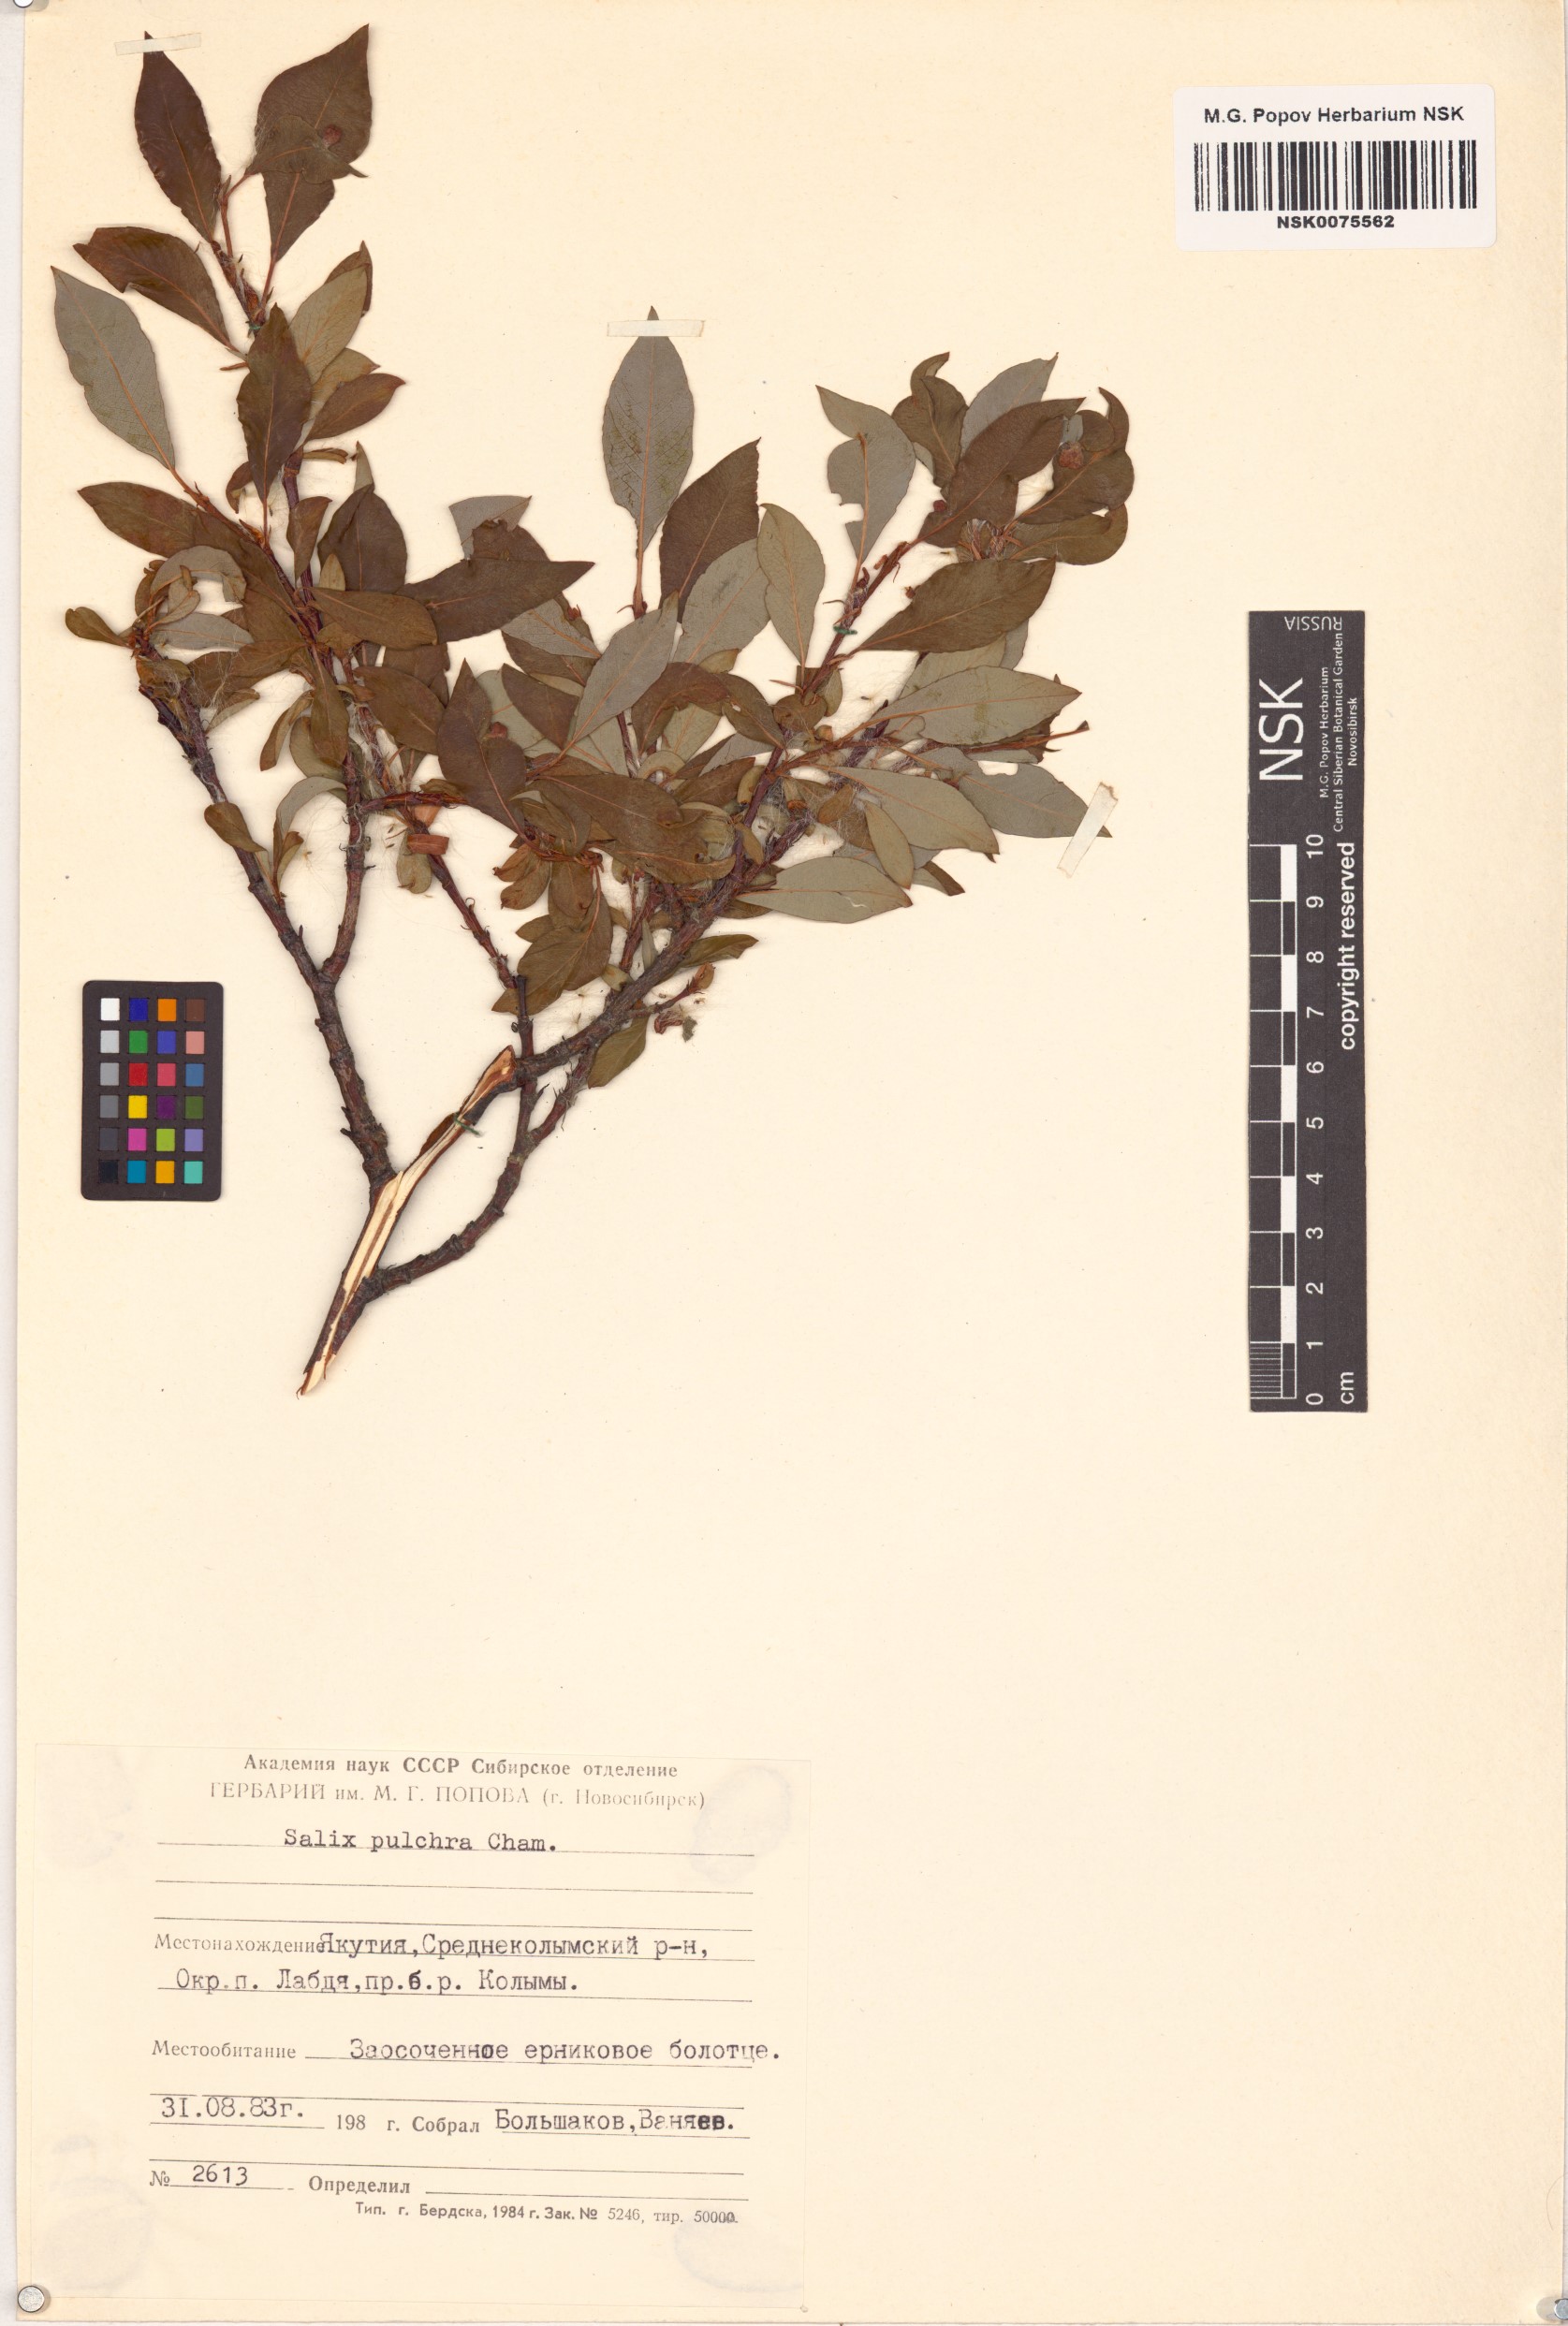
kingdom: Plantae
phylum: Tracheophyta
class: Magnoliopsida
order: Malpighiales
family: Salicaceae
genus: Salix
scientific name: Salix pulchra
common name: Diamond-leaved willow
